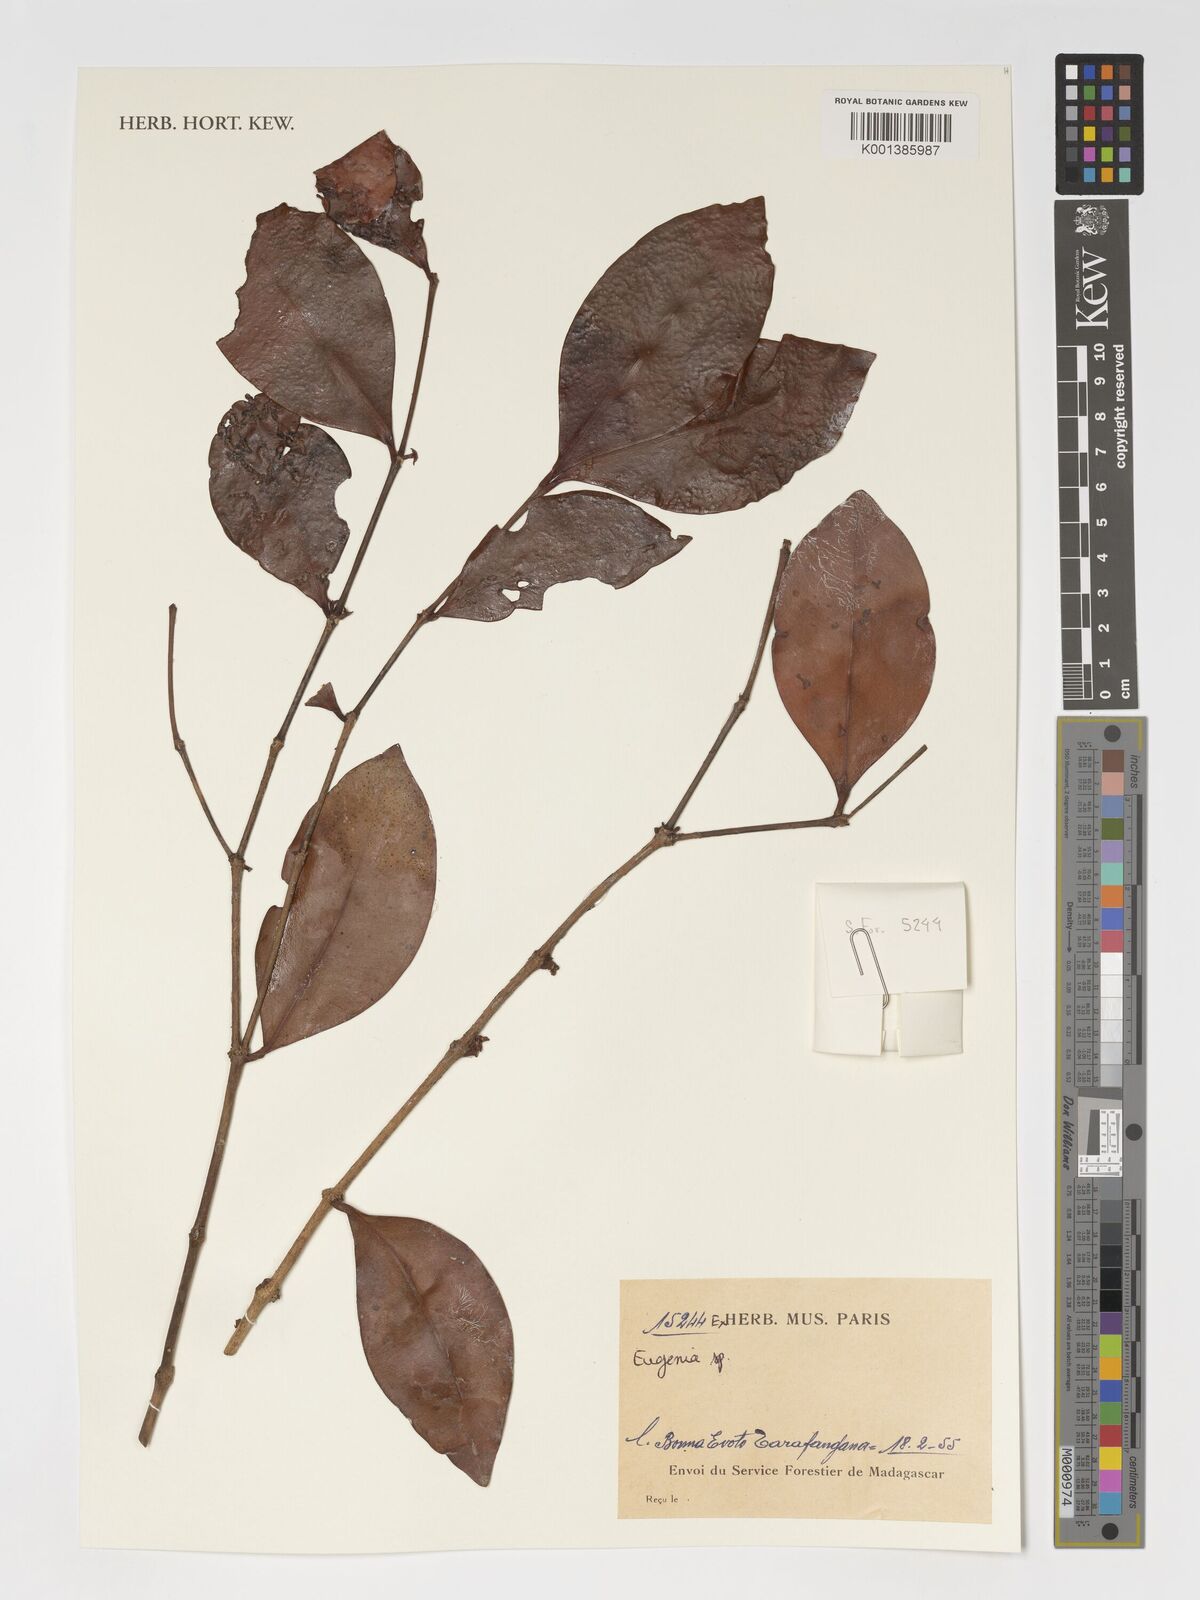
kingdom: Plantae
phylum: Tracheophyta
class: Magnoliopsida
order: Myrtales
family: Myrtaceae
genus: Eugenia
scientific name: Eugenia
